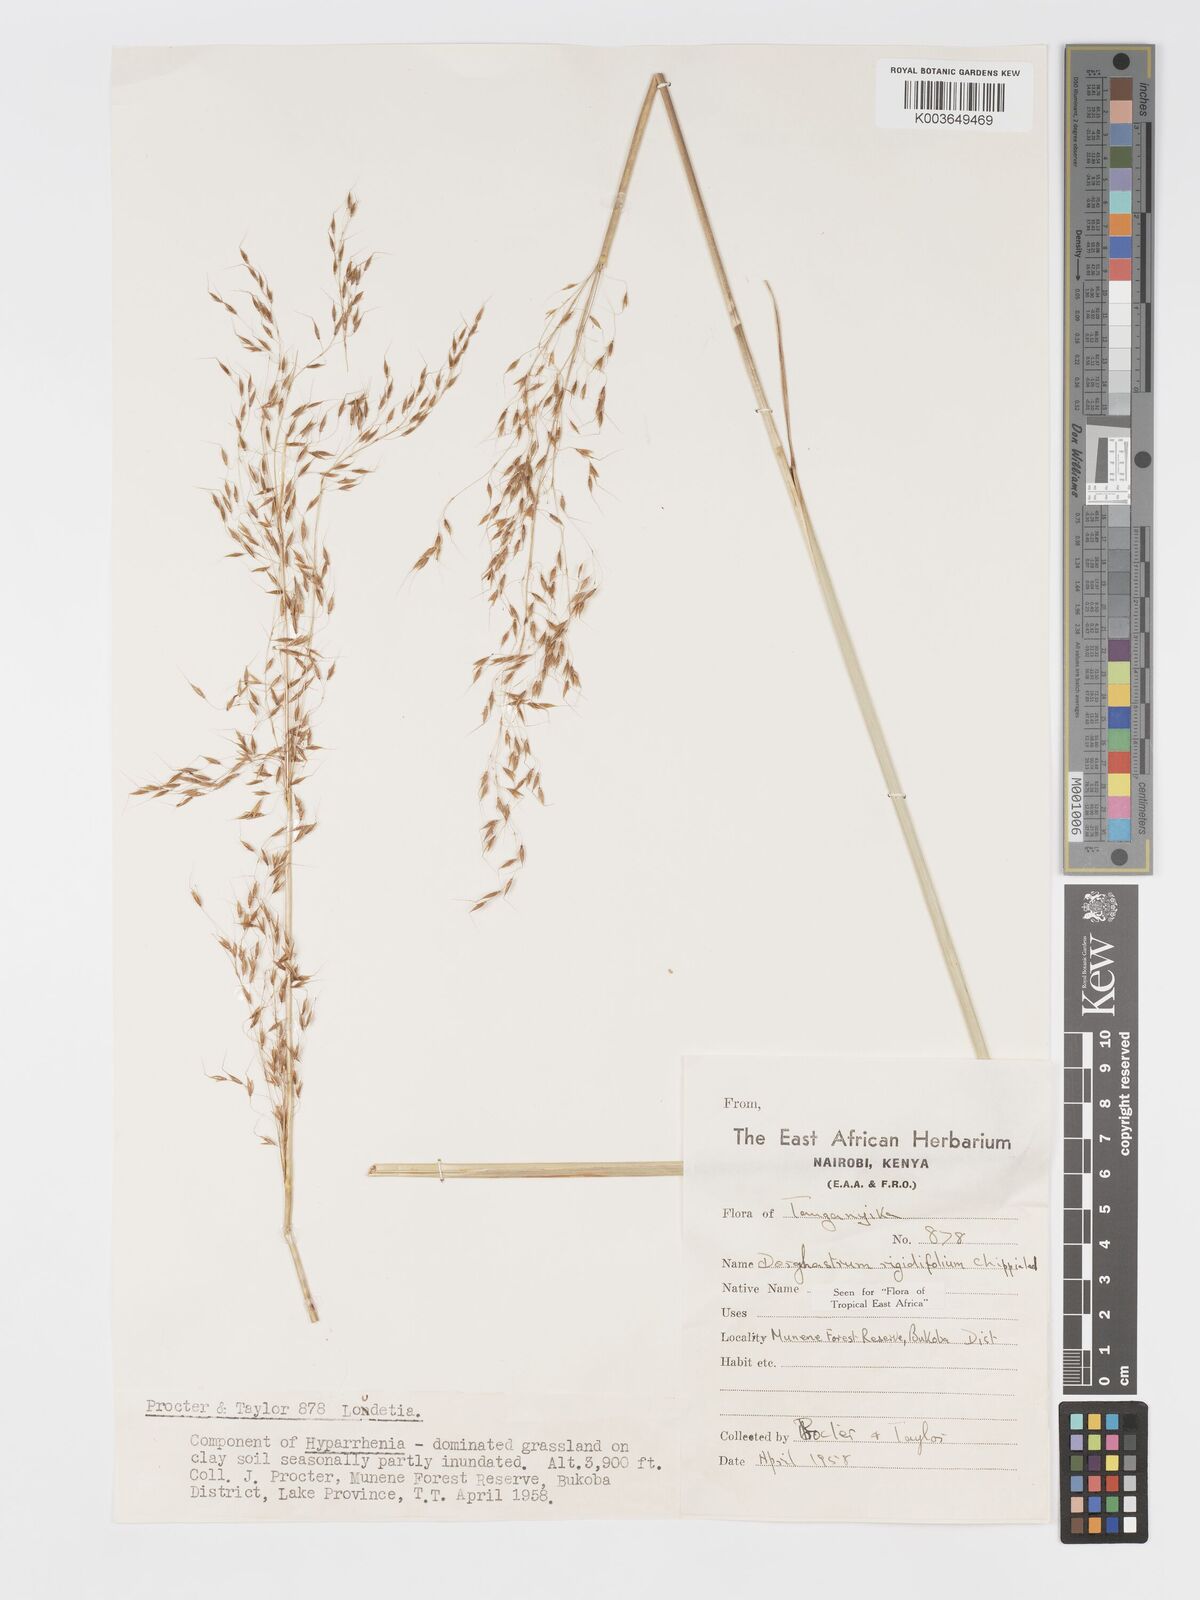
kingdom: Plantae
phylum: Tracheophyta
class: Liliopsida
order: Poales
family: Poaceae
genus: Sorghastrum
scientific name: Sorghastrum stipoides
